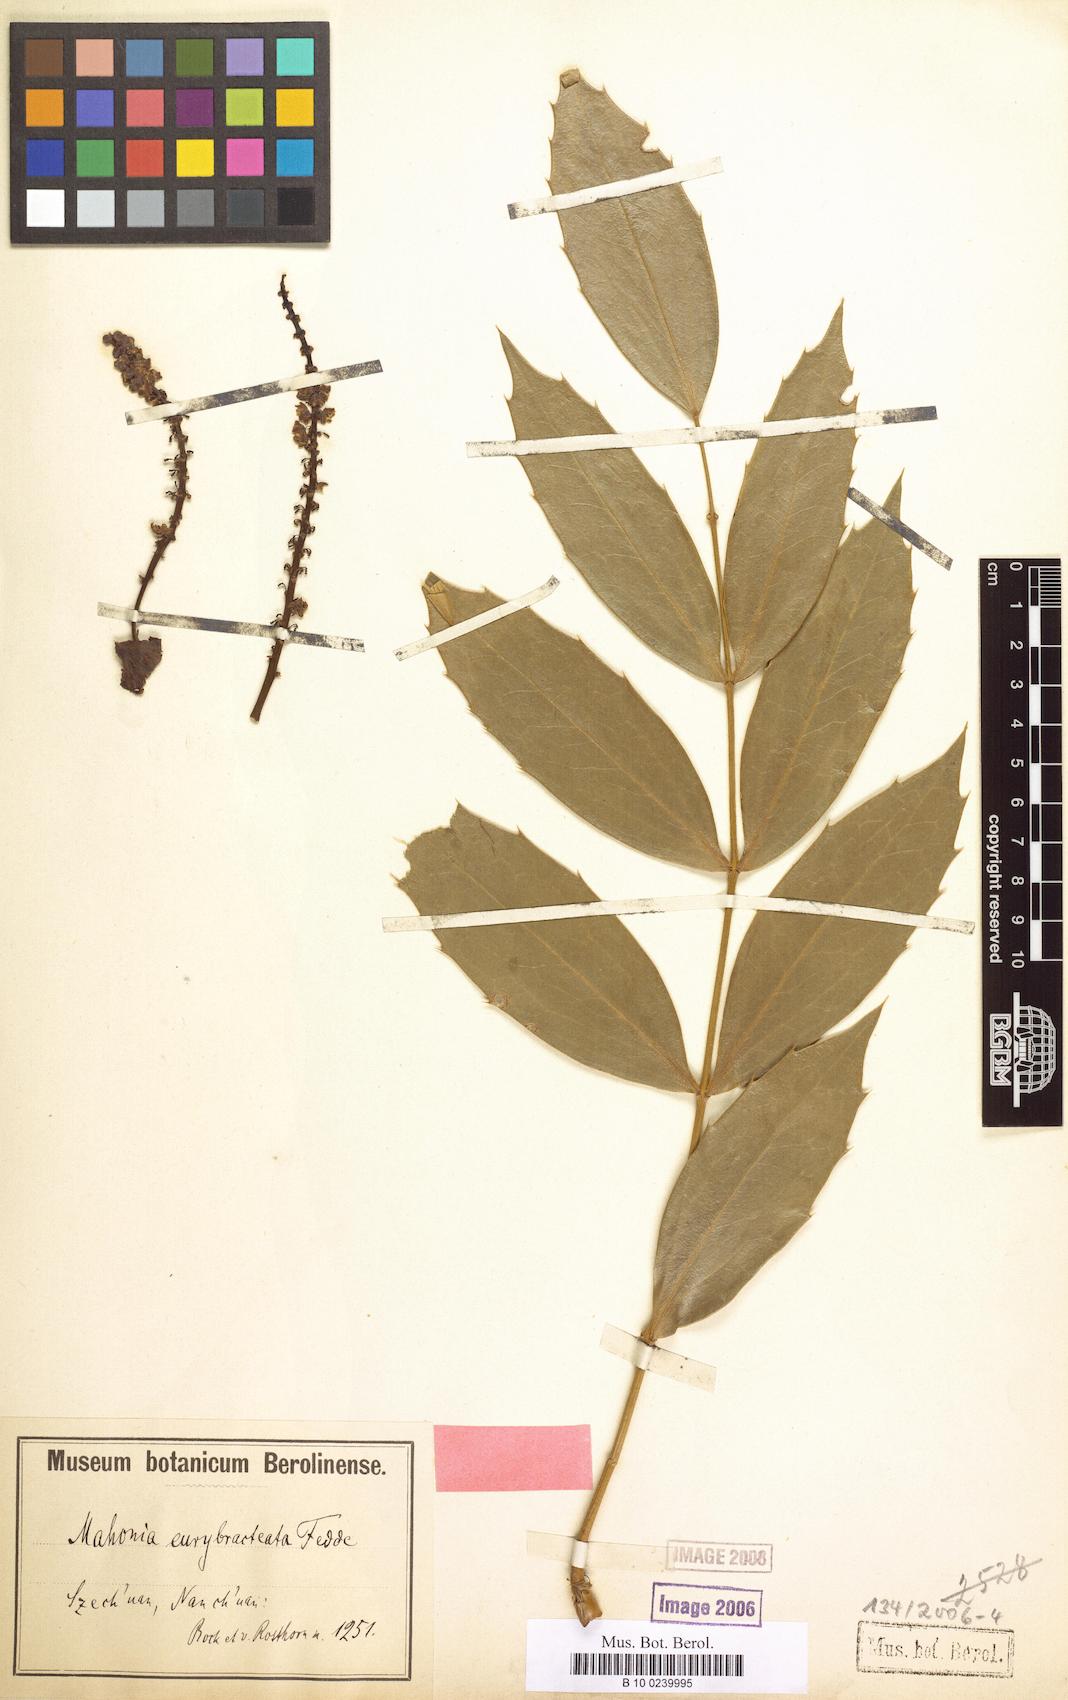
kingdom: Plantae
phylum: Tracheophyta
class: Magnoliopsida
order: Ranunculales
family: Berberidaceae
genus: Mahonia
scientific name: Mahonia eurybracteata
